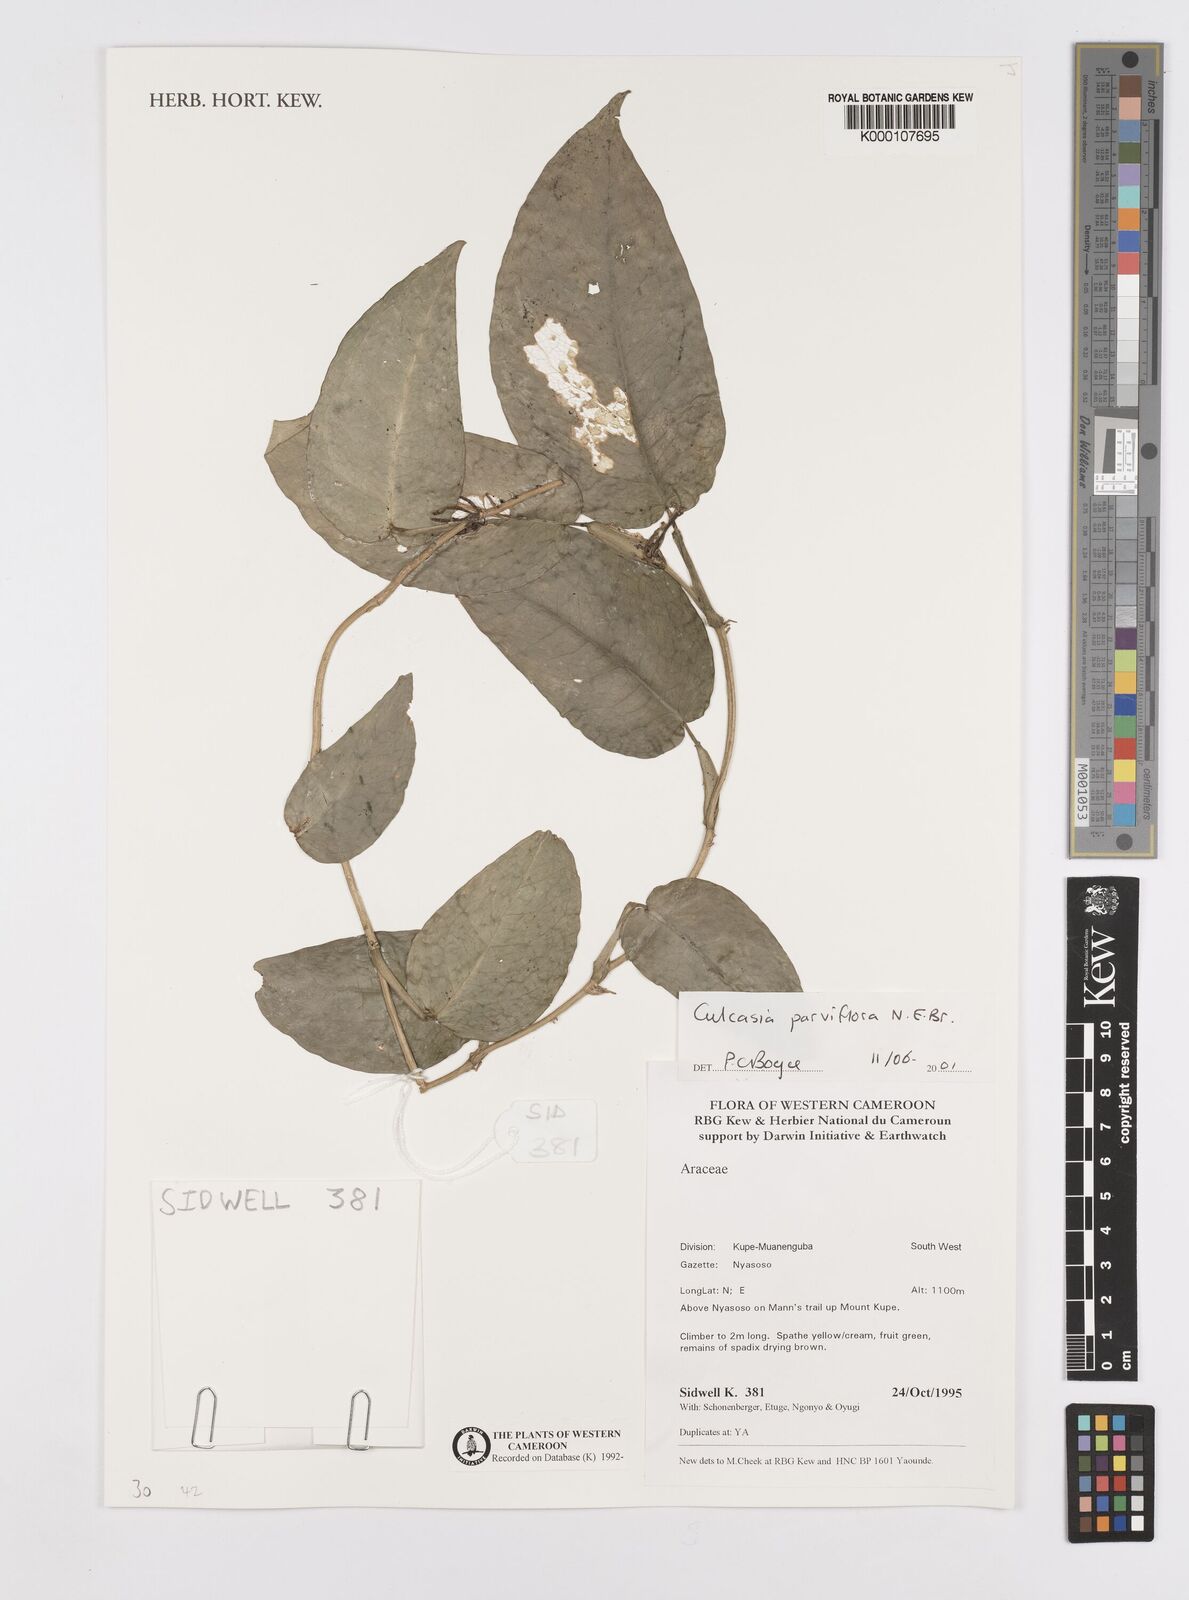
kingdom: Plantae
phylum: Tracheophyta
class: Liliopsida
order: Alismatales
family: Araceae
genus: Culcasia
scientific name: Culcasia parviflora
